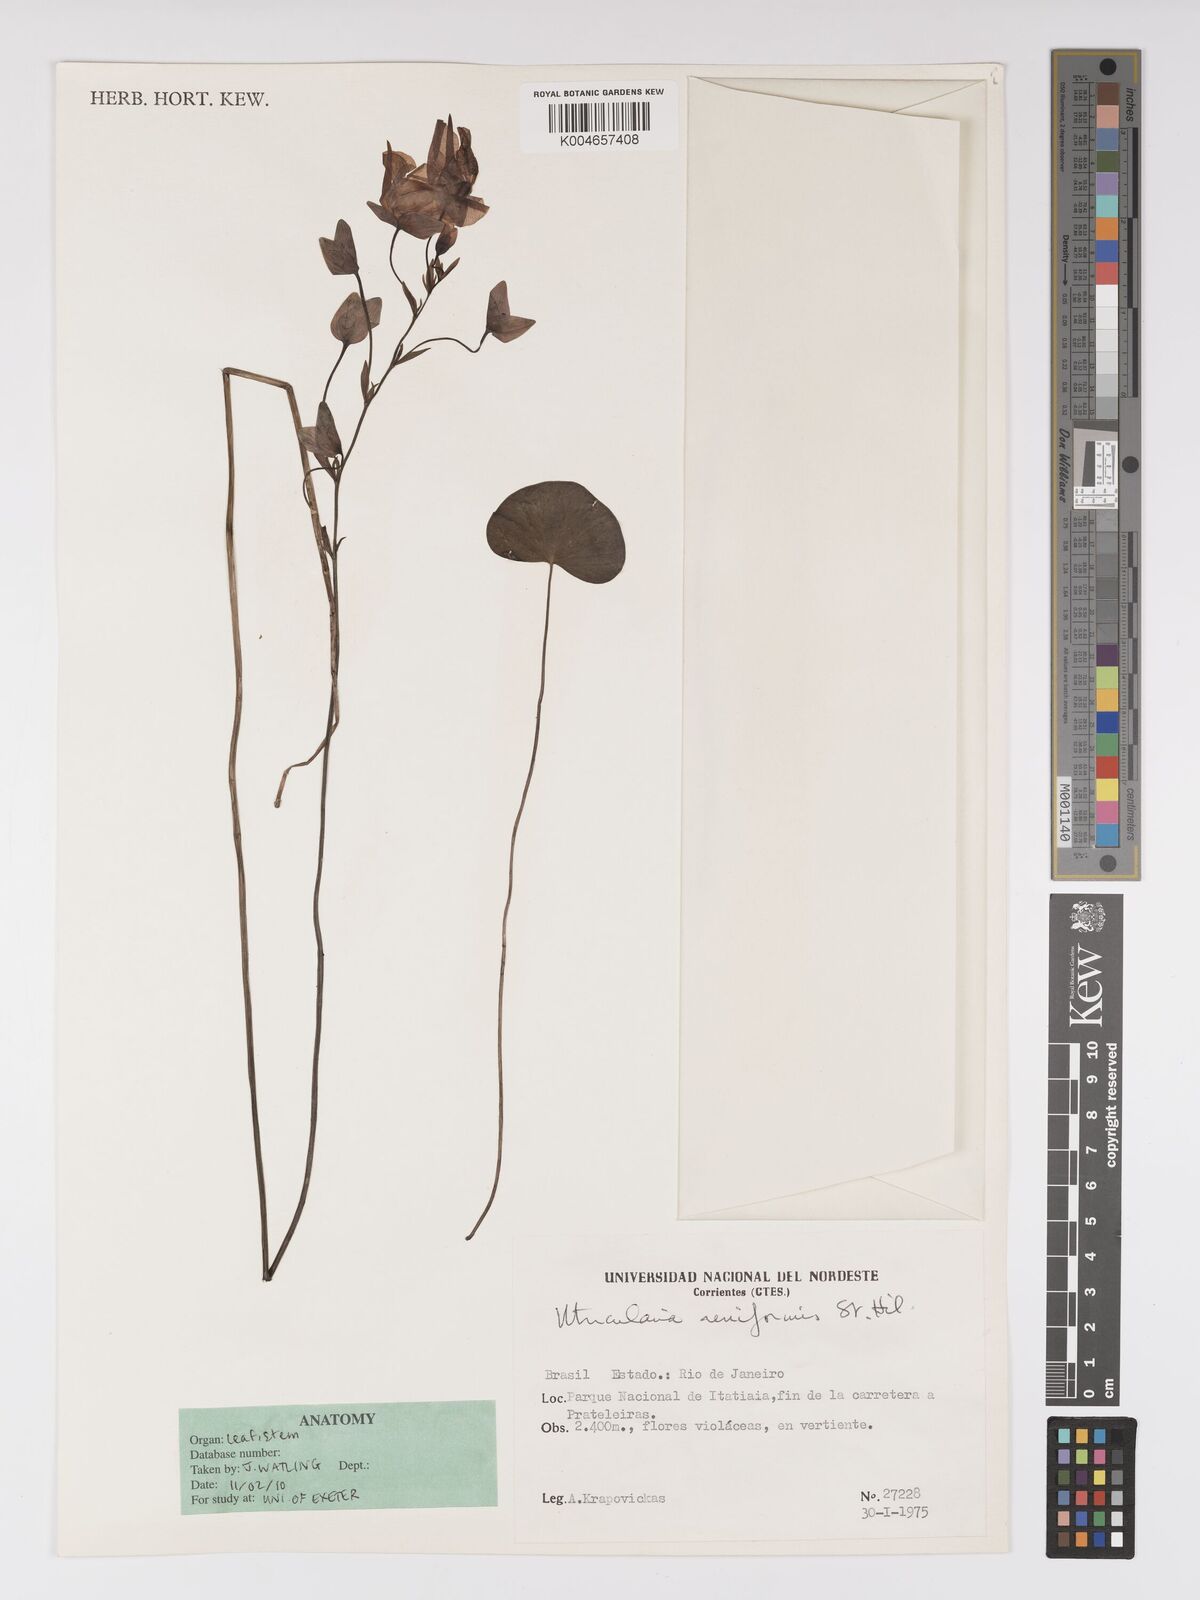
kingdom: Plantae
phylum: Tracheophyta
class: Magnoliopsida
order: Lamiales
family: Lentibulariaceae
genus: Utricularia
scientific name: Utricularia reniformis
